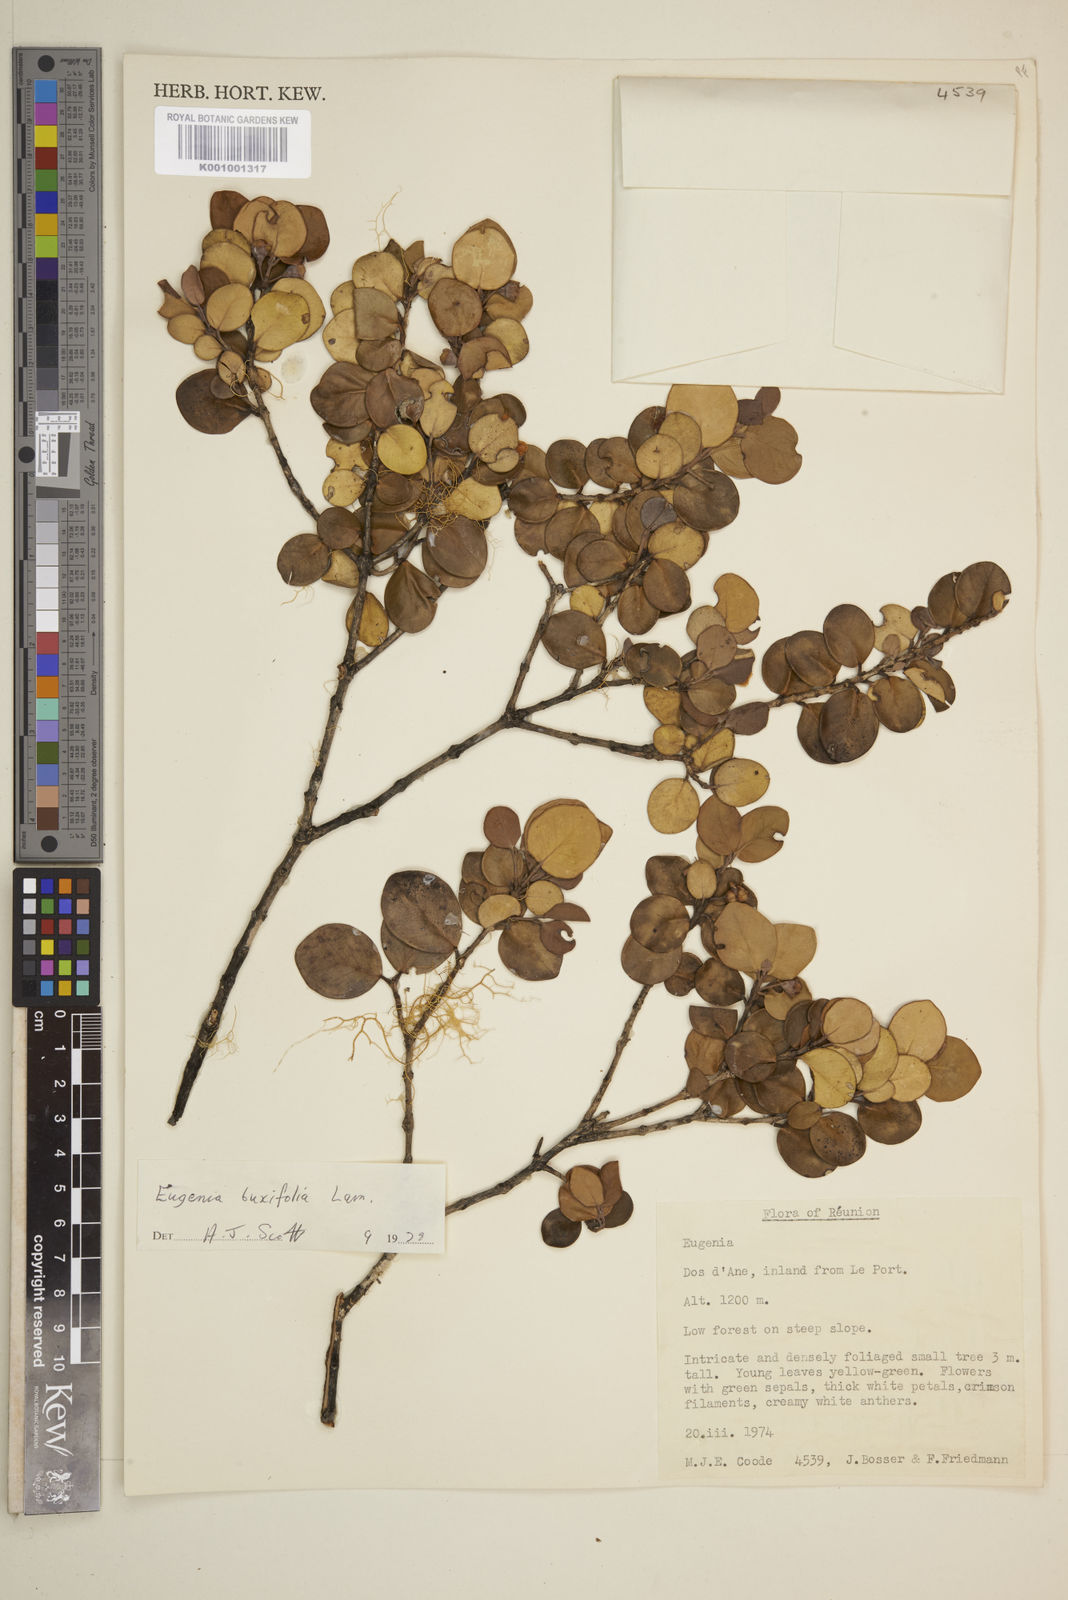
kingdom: Plantae
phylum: Tracheophyta
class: Magnoliopsida
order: Myrtales
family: Myrtaceae
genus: Eugenia
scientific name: Eugenia buxifolia
